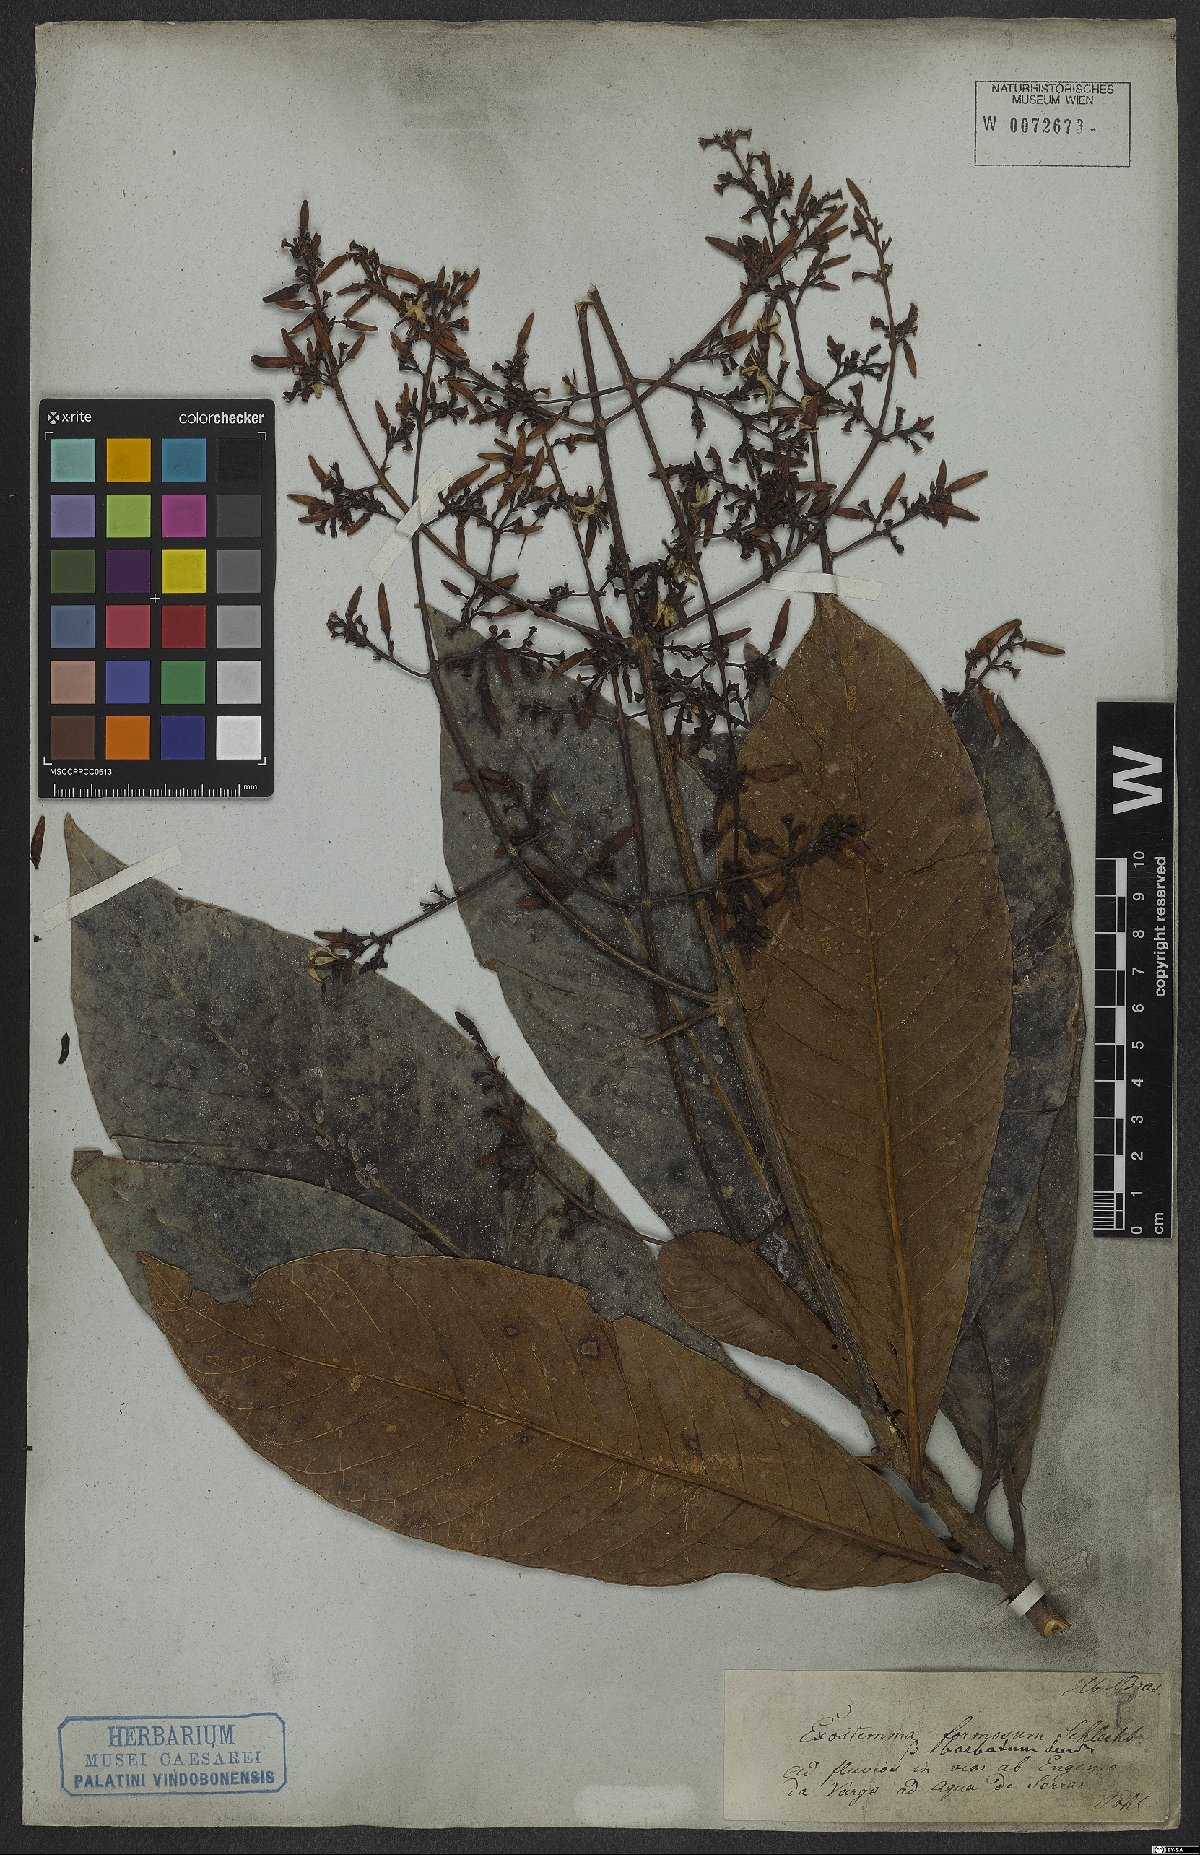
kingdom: Plantae
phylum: Tracheophyta
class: Magnoliopsida
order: Gentianales
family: Rubiaceae
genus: Rustia
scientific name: Rustia formosa
